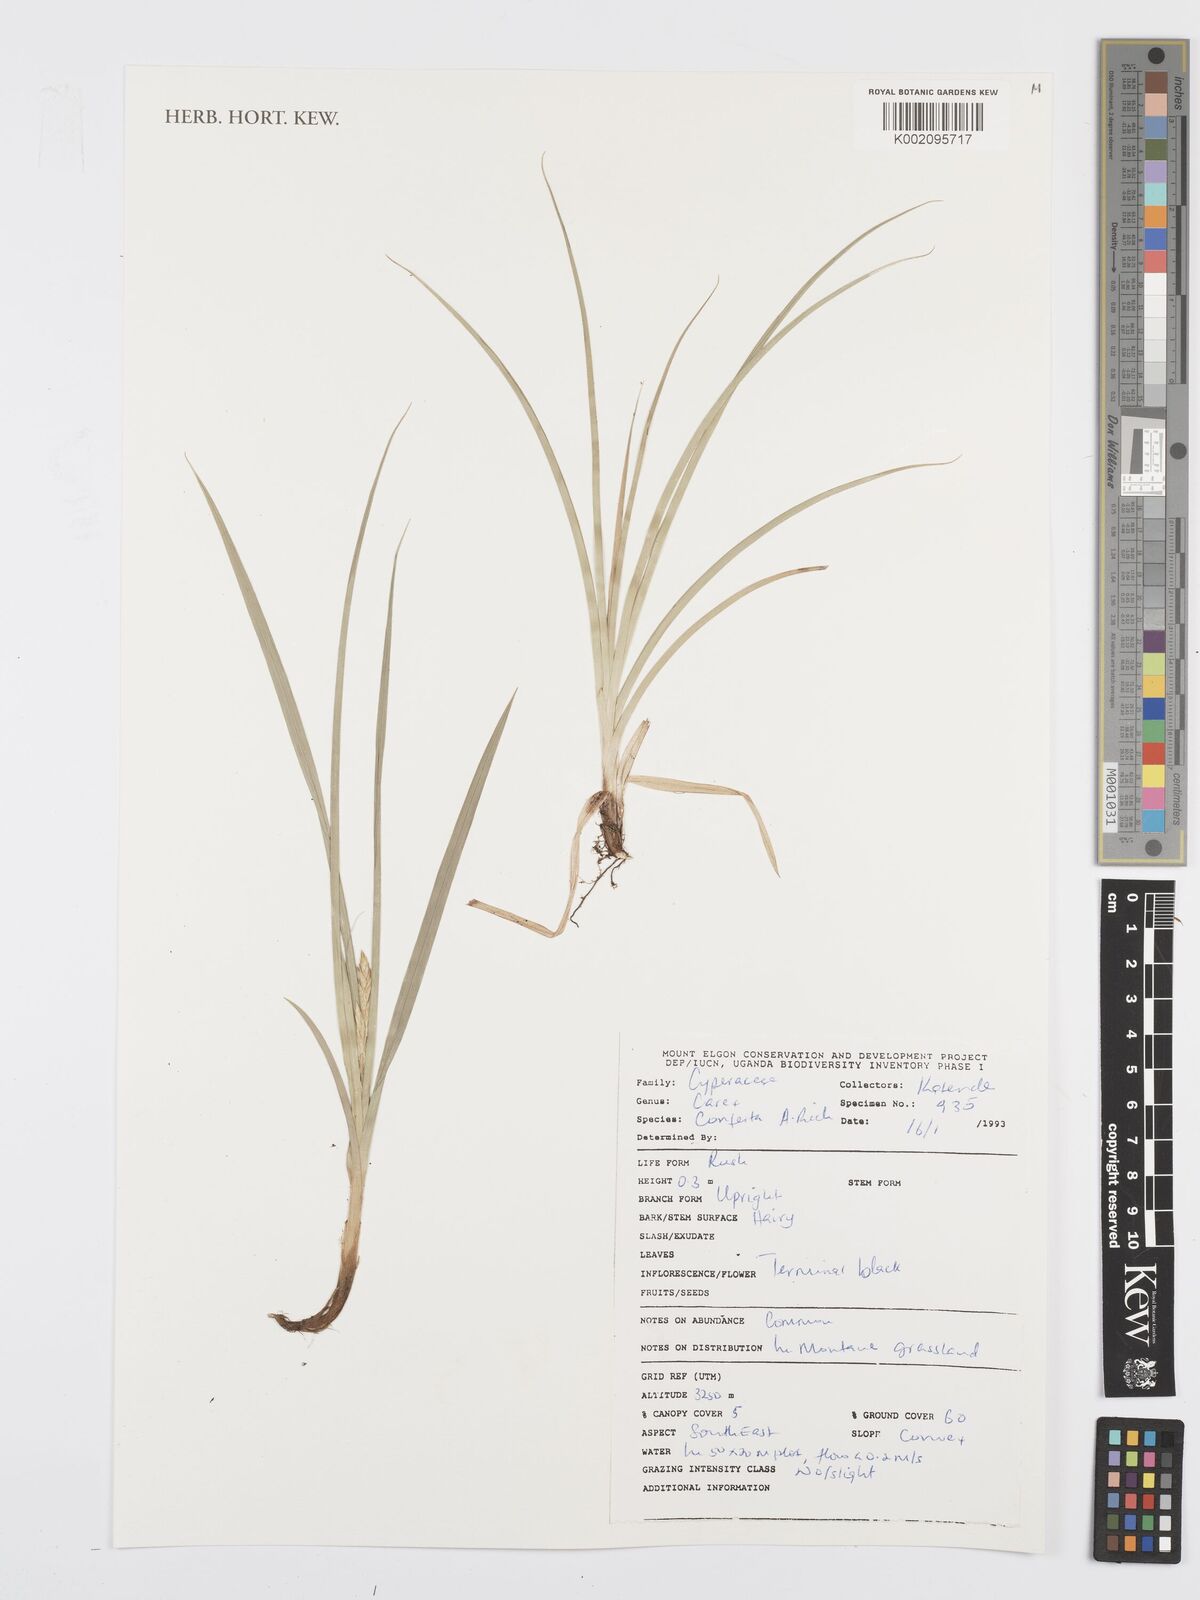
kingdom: Plantae
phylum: Tracheophyta
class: Liliopsida
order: Poales
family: Cyperaceae
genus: Carex
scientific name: Carex conferta
